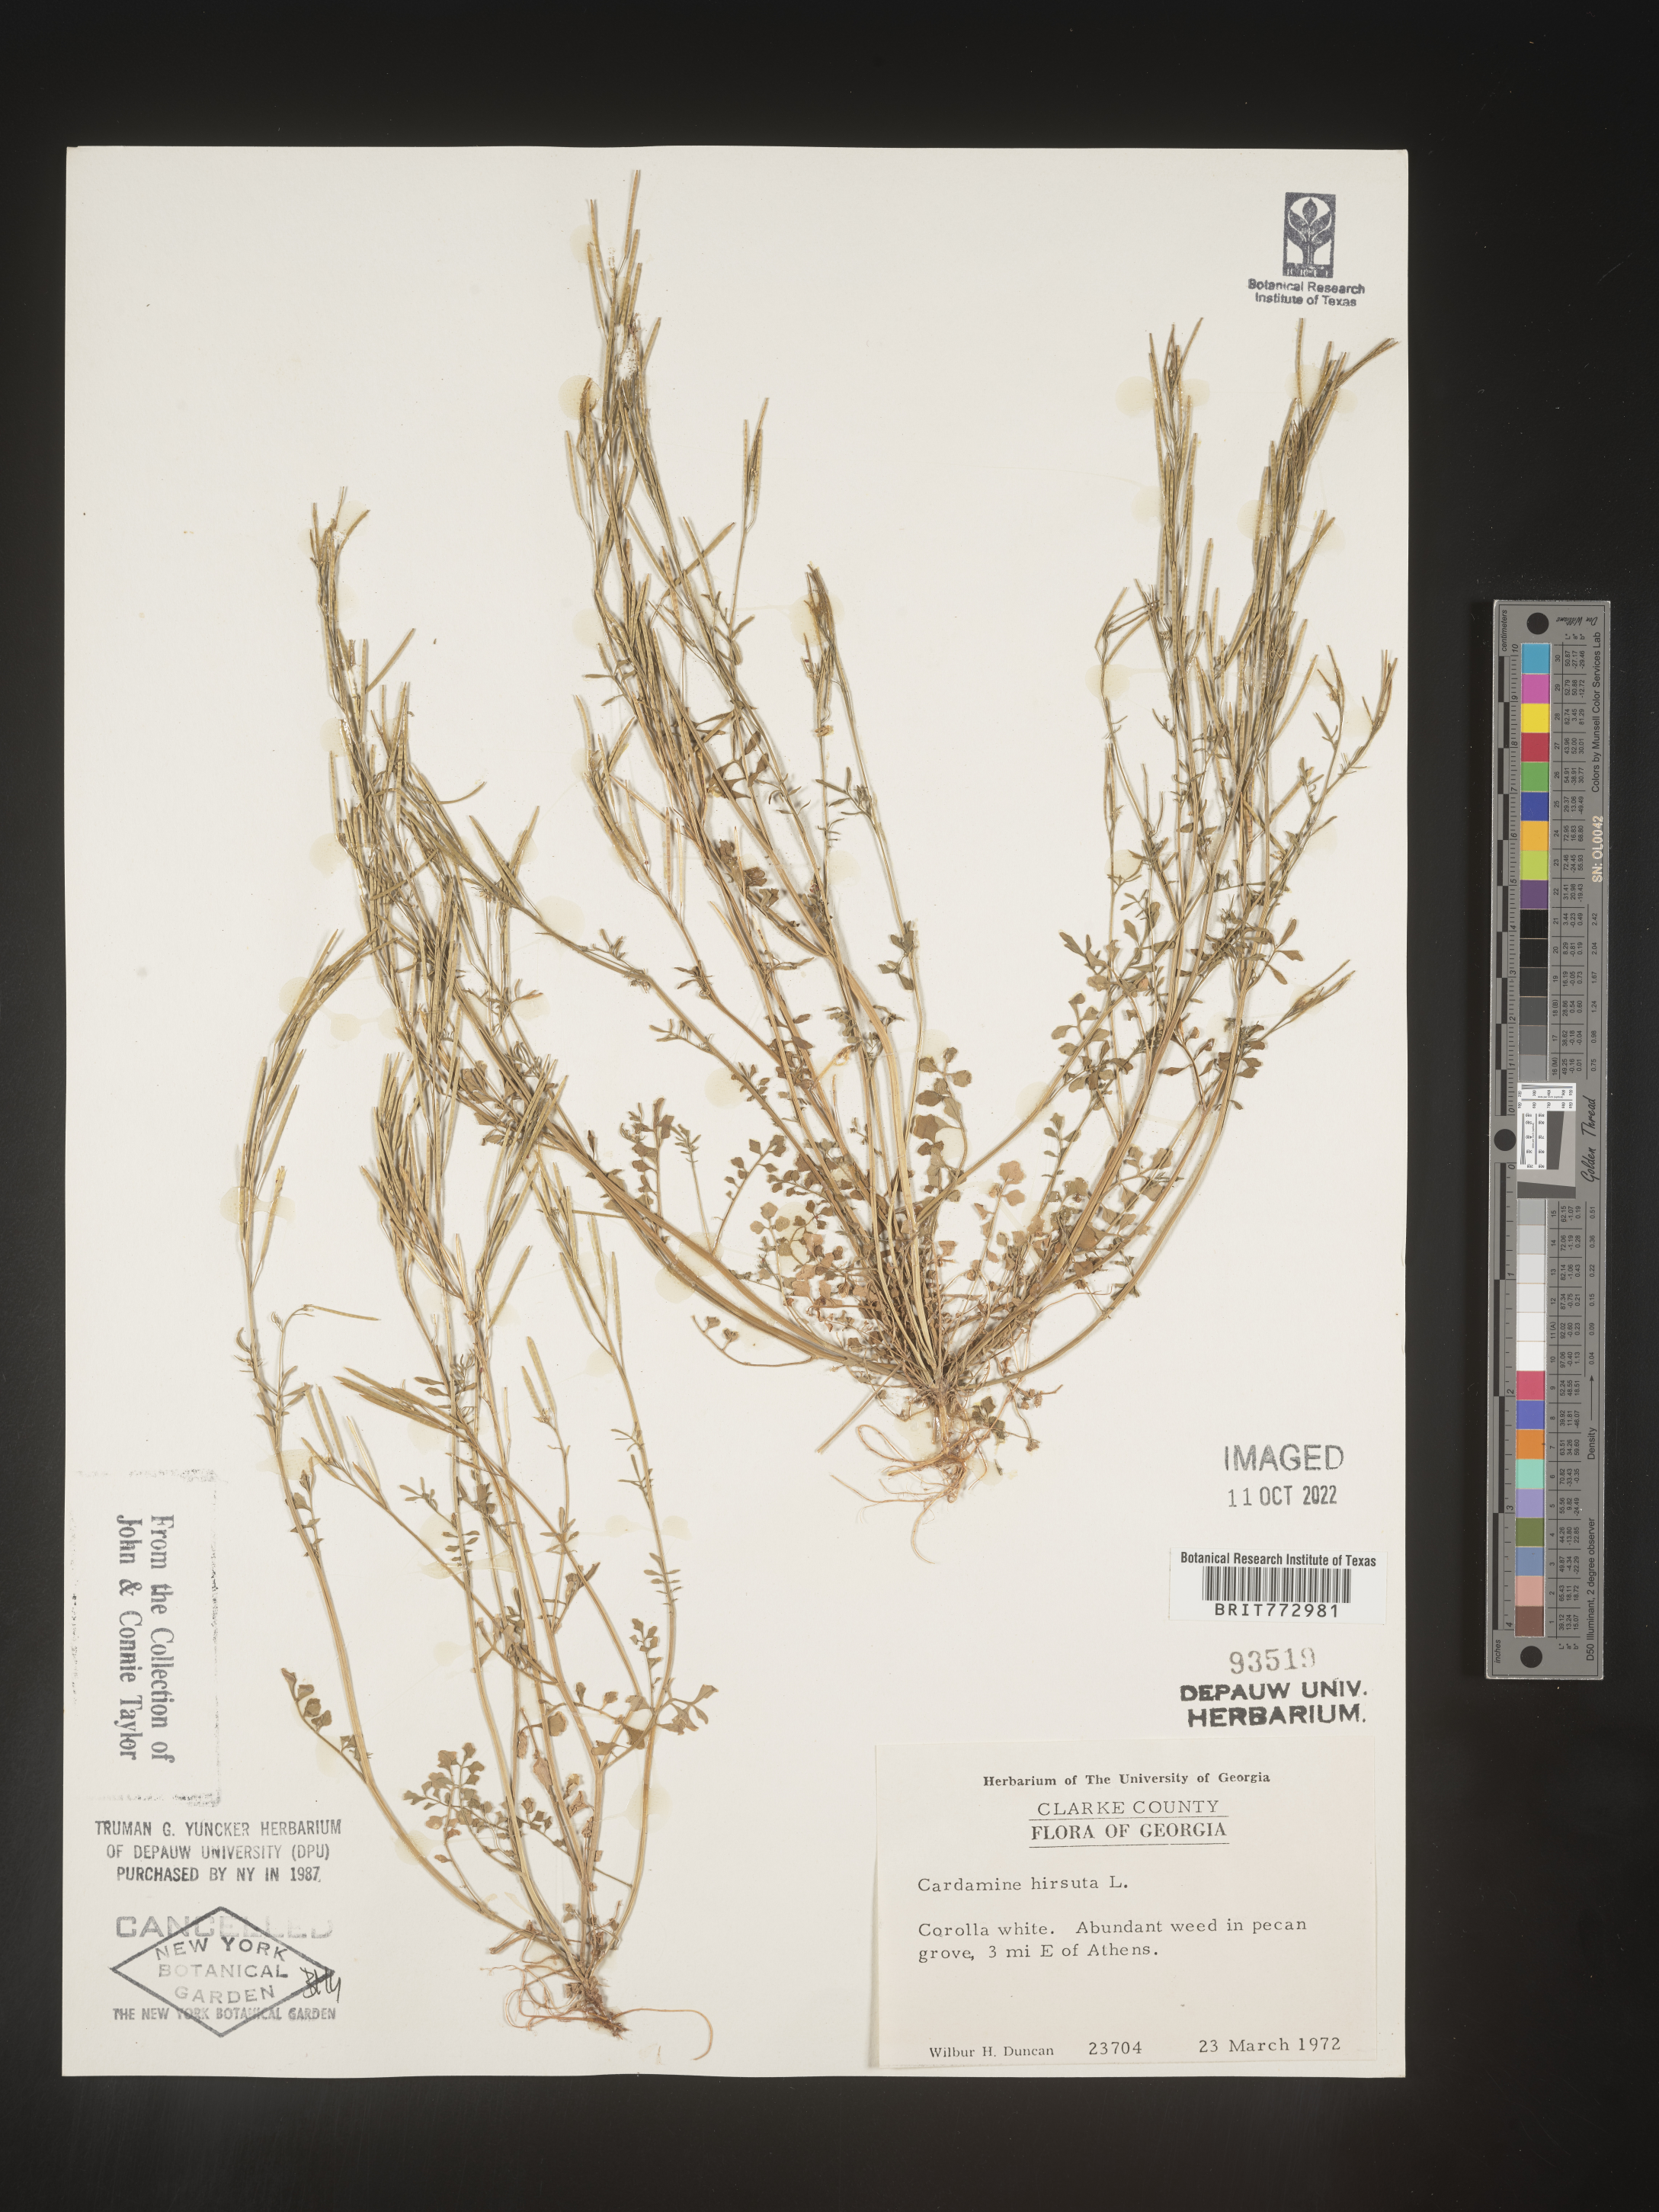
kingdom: Plantae
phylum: Tracheophyta
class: Magnoliopsida
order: Brassicales
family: Brassicaceae
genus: Cardamine
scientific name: Cardamine hirsuta
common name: Hairy bittercress
